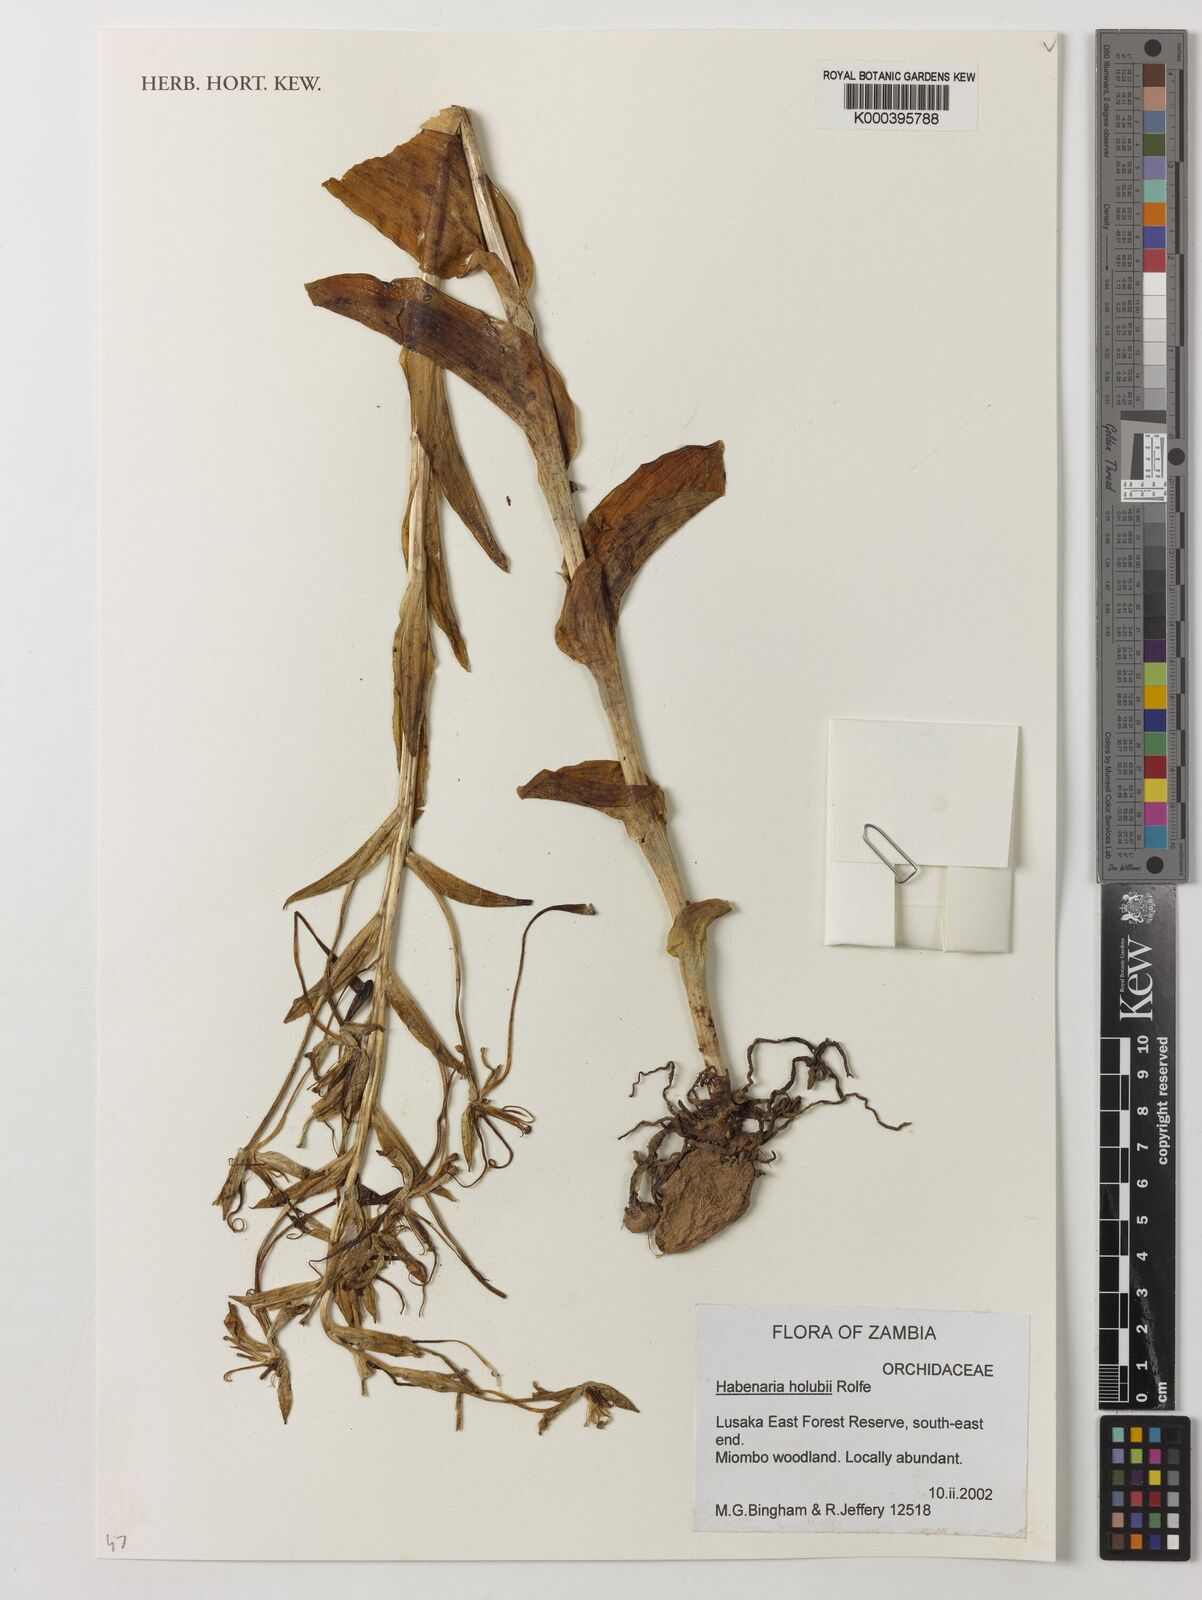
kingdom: Plantae
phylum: Tracheophyta
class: Liliopsida
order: Asparagales
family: Orchidaceae
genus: Habenaria
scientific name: Habenaria holubii
